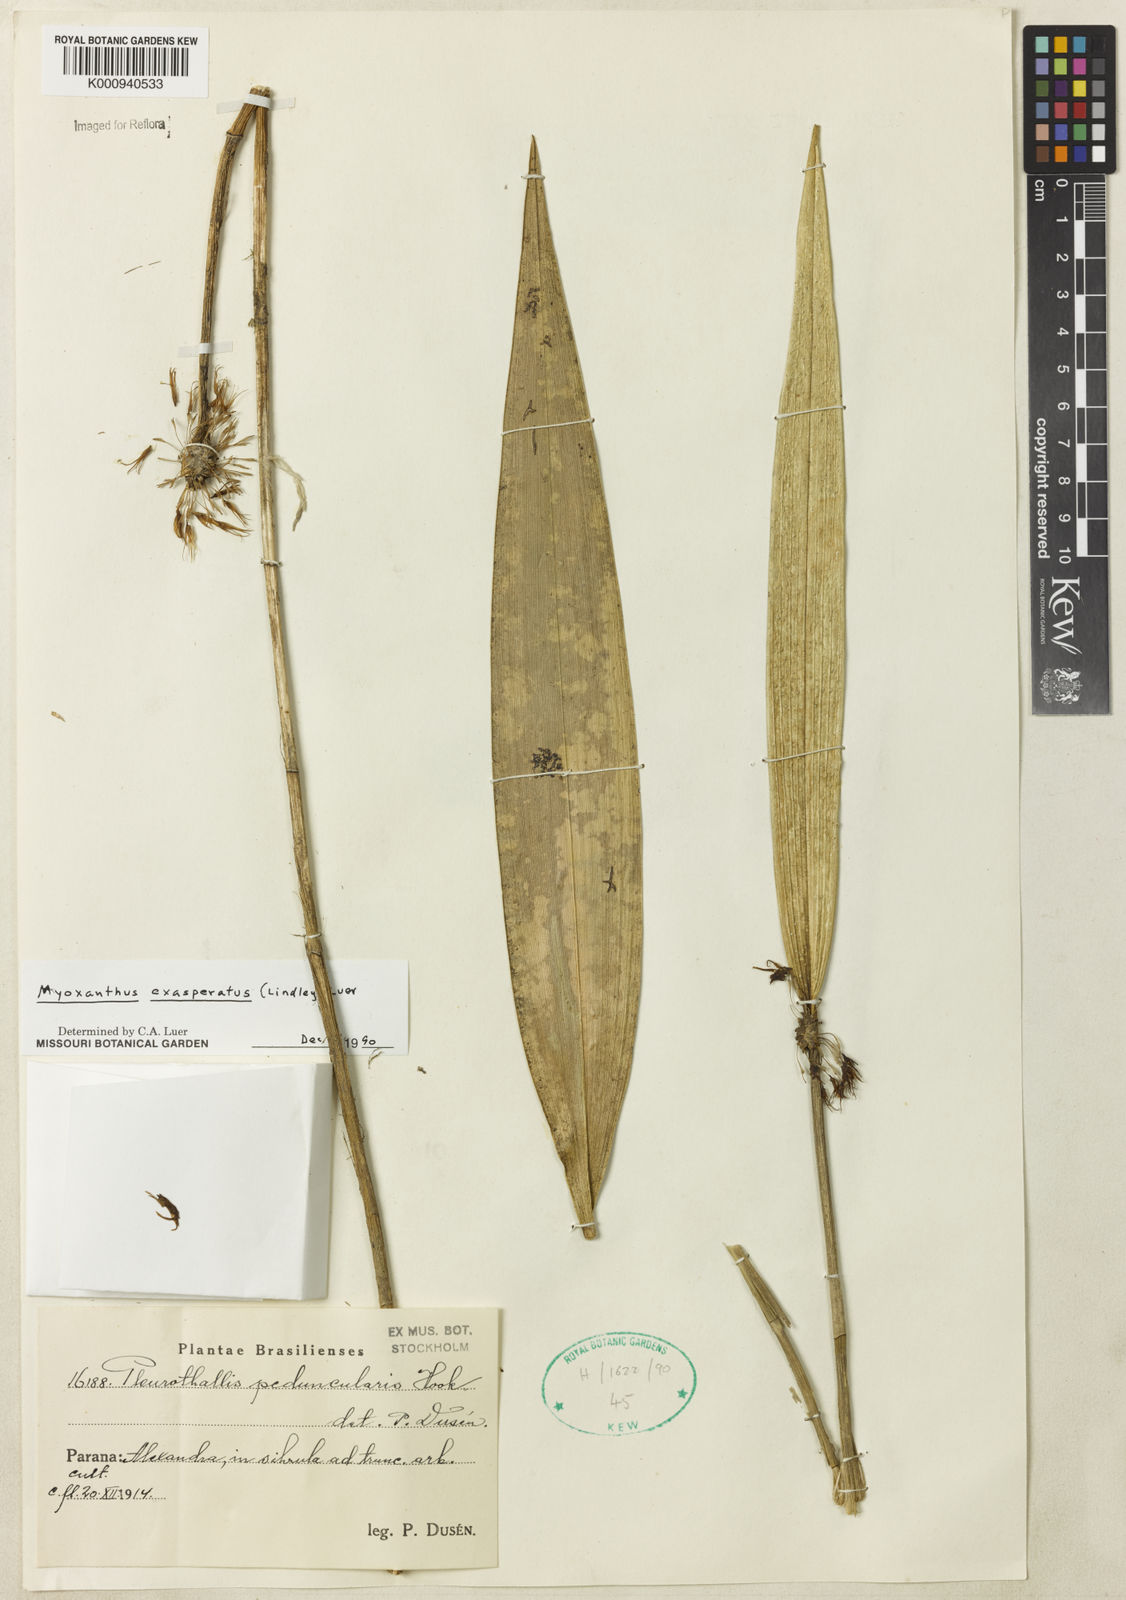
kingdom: Plantae
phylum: Tracheophyta
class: Liliopsida
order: Asparagales
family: Orchidaceae
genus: Myoxanthus
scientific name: Myoxanthus exasperatus
